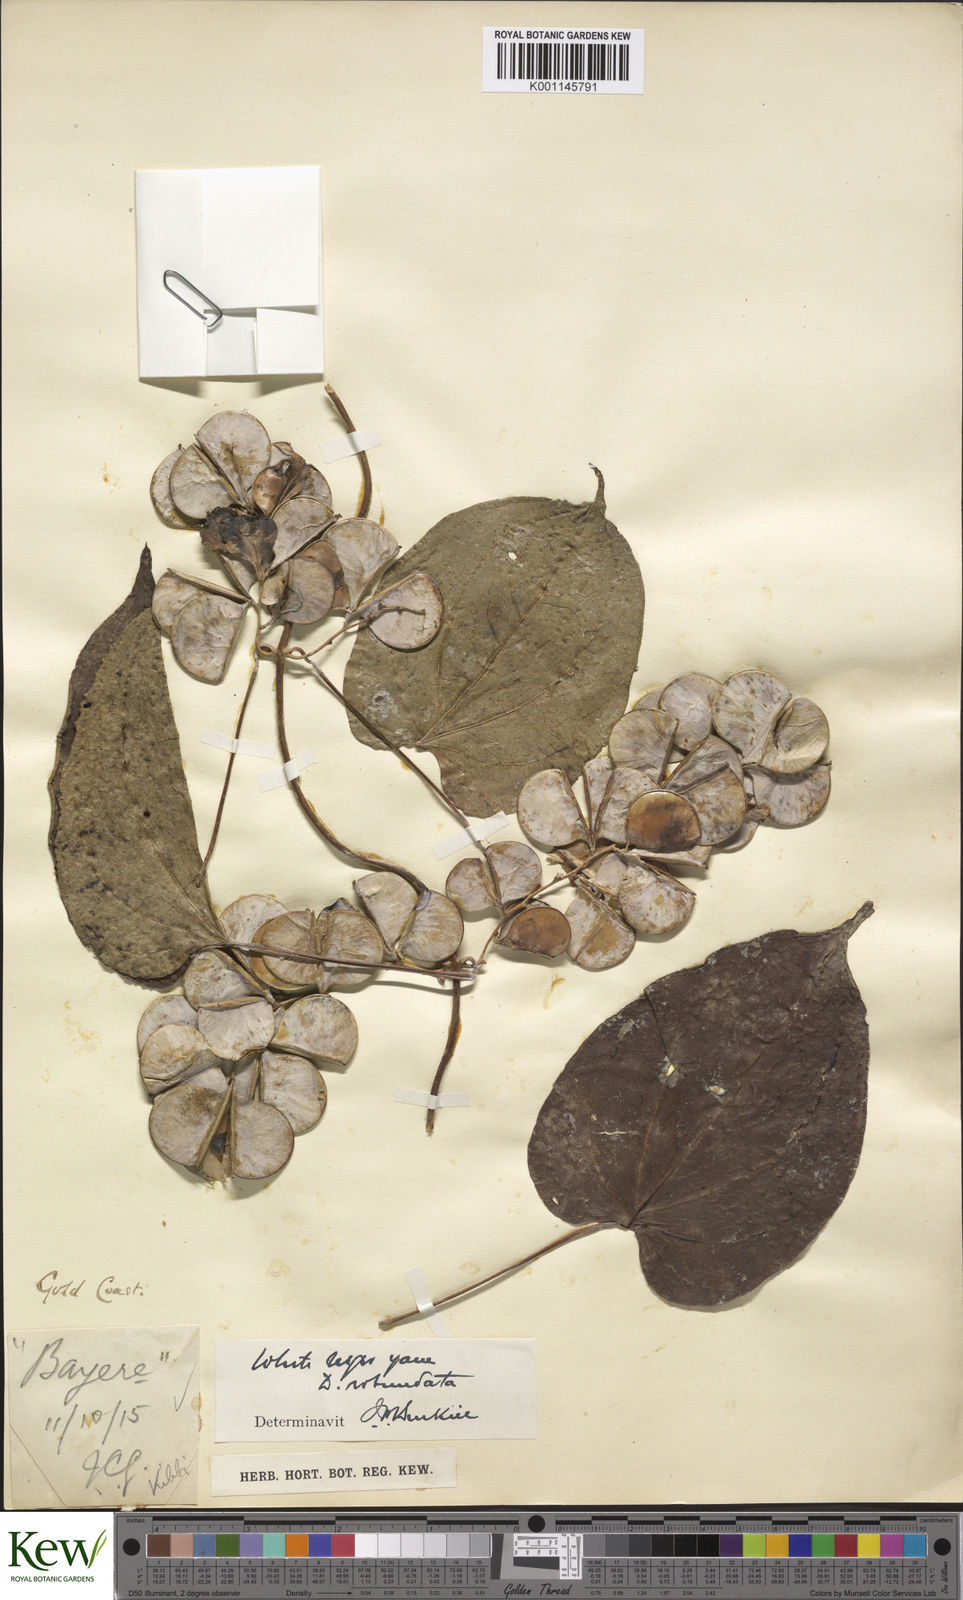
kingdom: Plantae
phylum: Tracheophyta
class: Liliopsida
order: Dioscoreales
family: Dioscoreaceae
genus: Dioscorea
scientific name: Dioscorea cayenensis
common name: Attoto yam
